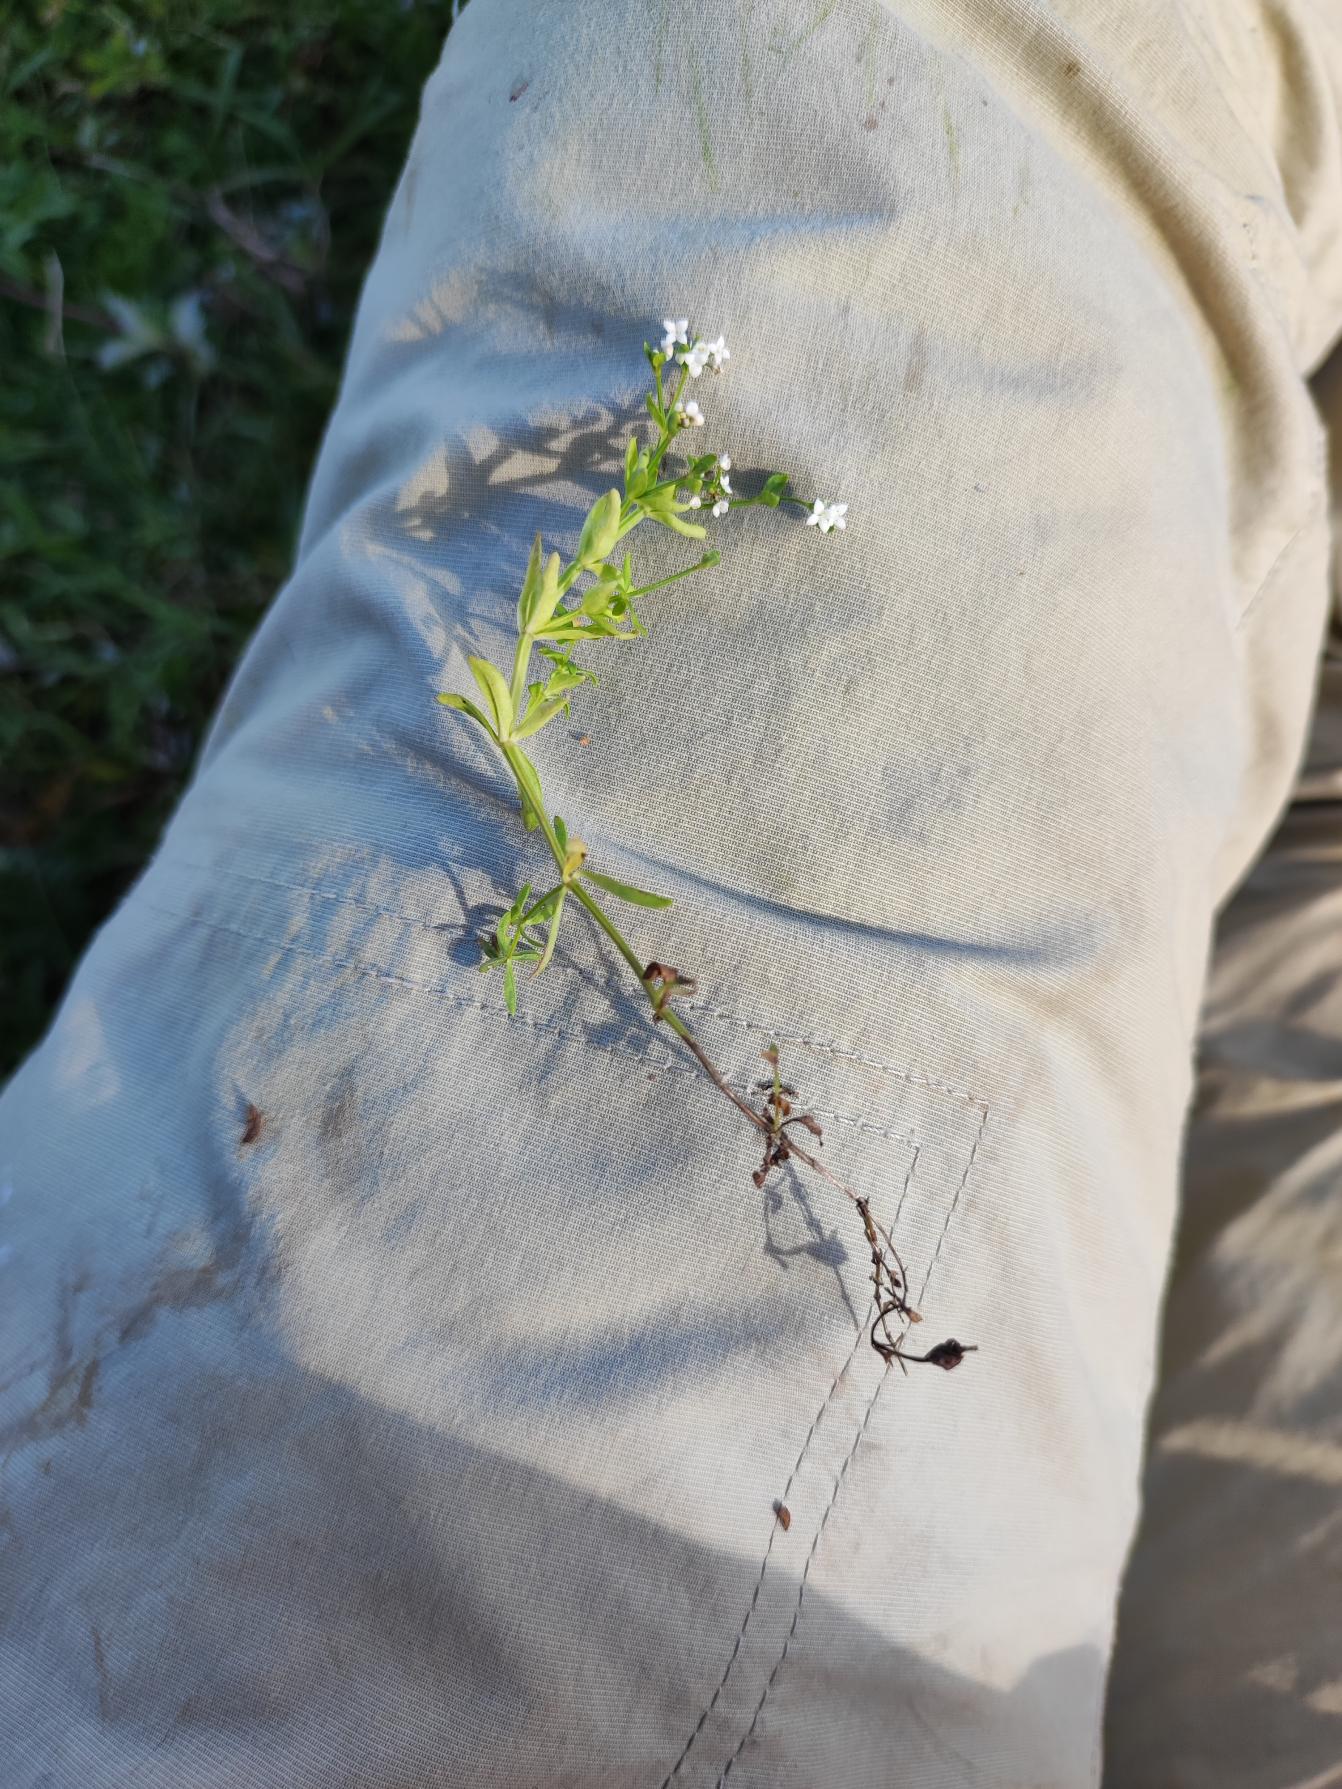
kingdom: Plantae
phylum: Tracheophyta
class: Magnoliopsida
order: Gentianales
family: Rubiaceae
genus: Galium
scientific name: Galium palustre
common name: Kær-snerre
